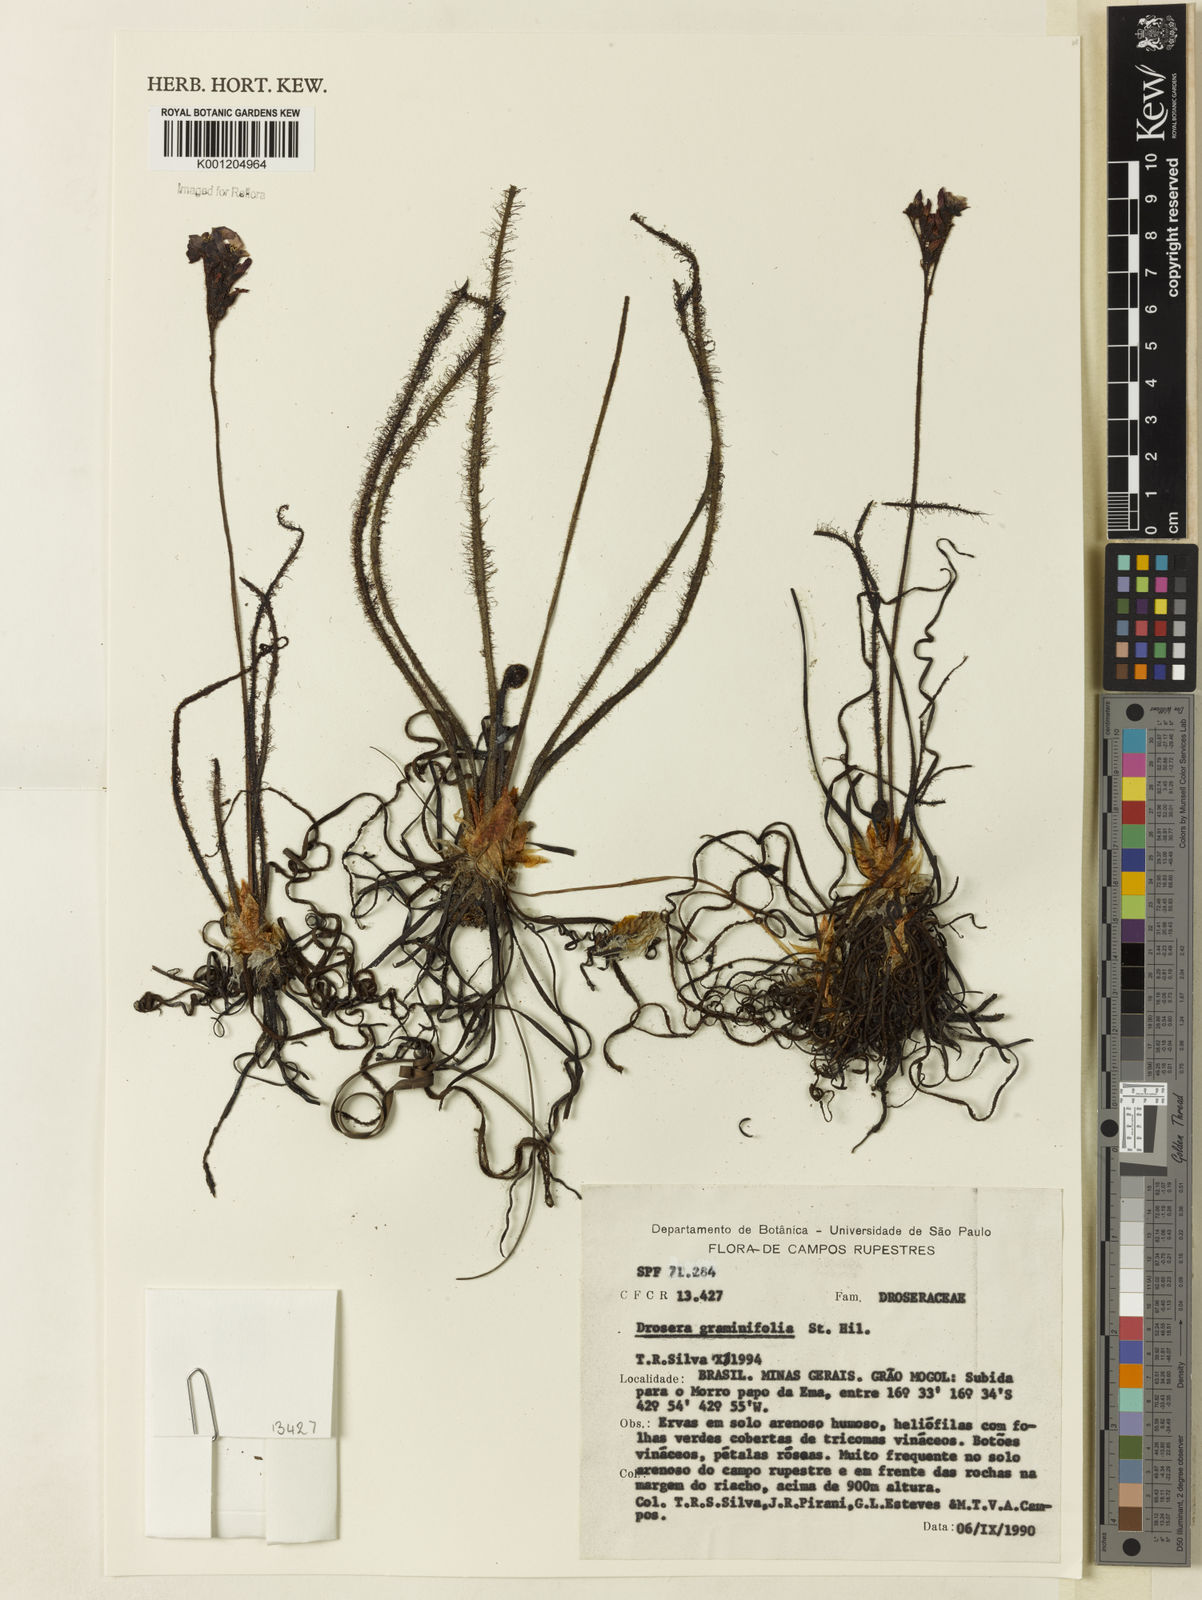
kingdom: Plantae
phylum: Tracheophyta
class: Magnoliopsida
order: Caryophyllales
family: Droseraceae
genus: Drosera
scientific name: Drosera graminifolia
